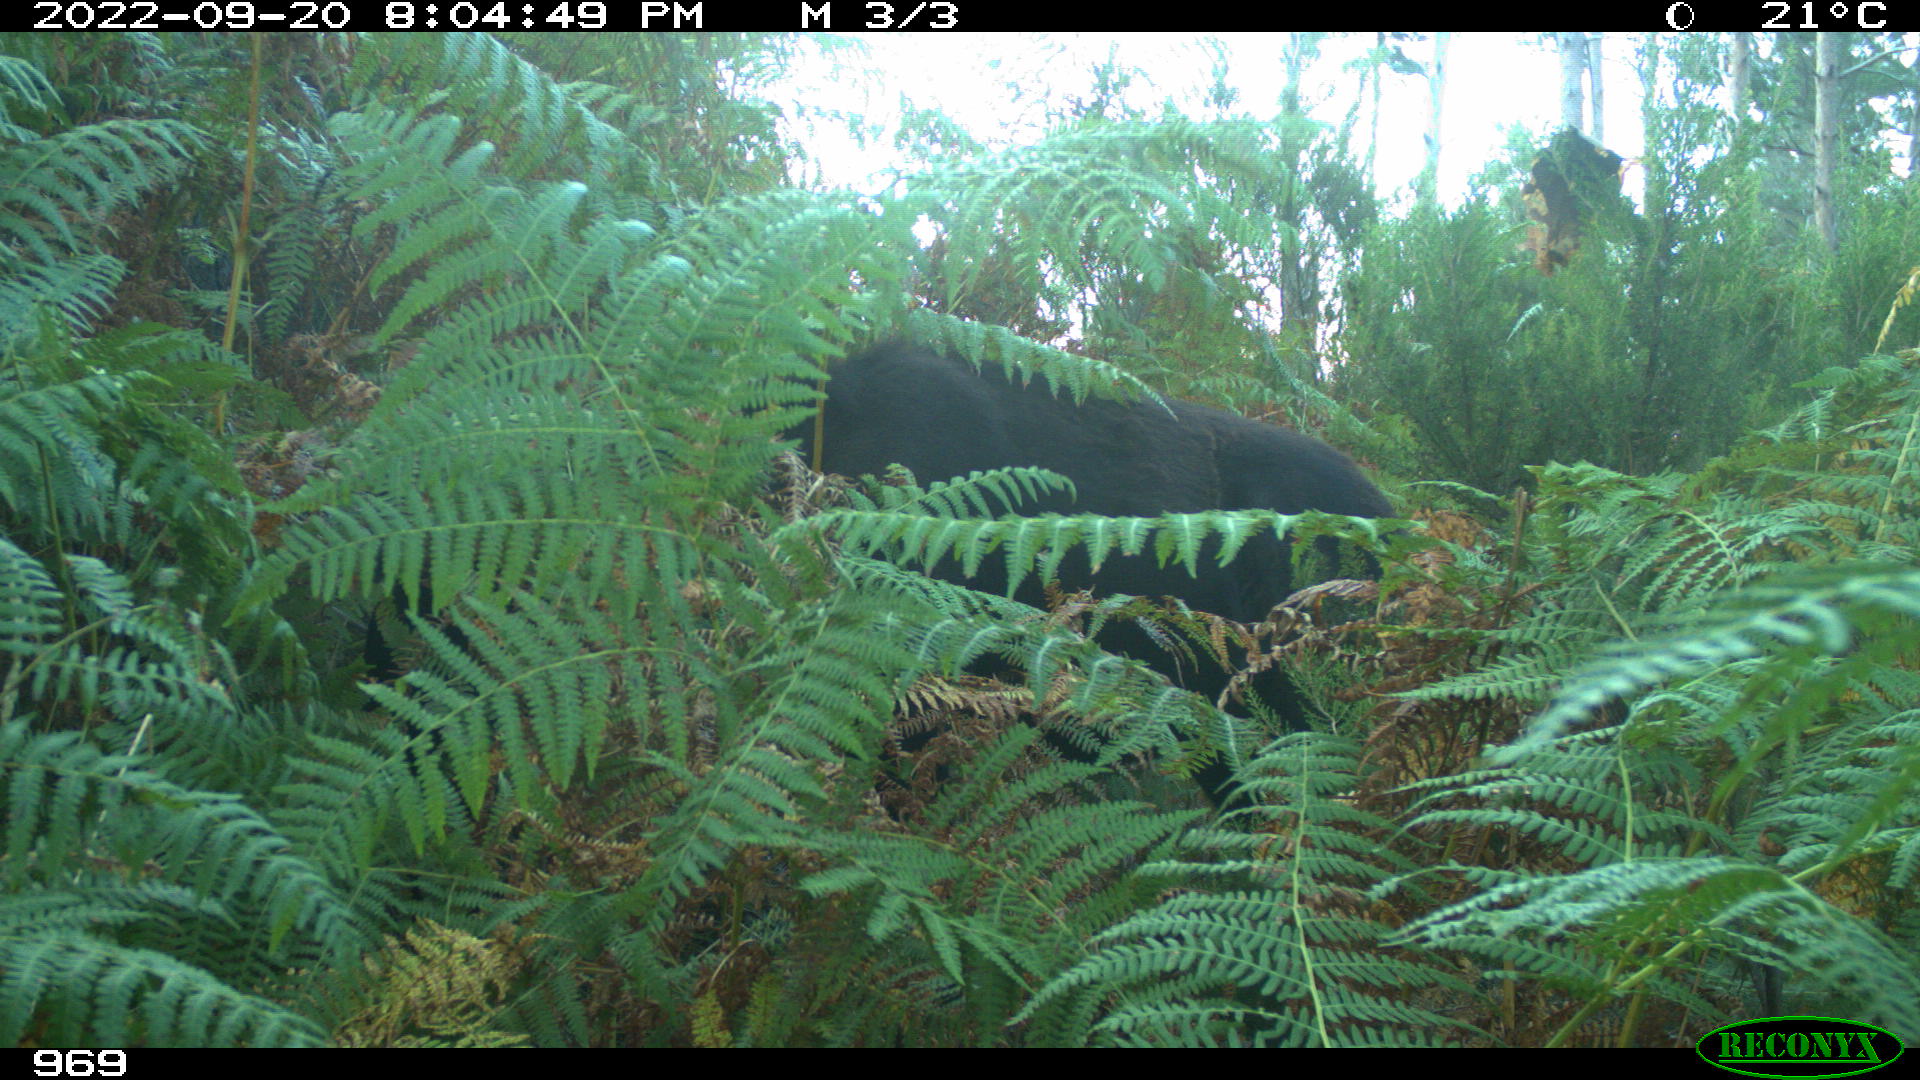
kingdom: Animalia
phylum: Chordata
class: Mammalia
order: Perissodactyla
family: Equidae
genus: Equus
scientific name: Equus caballus
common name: Horse
